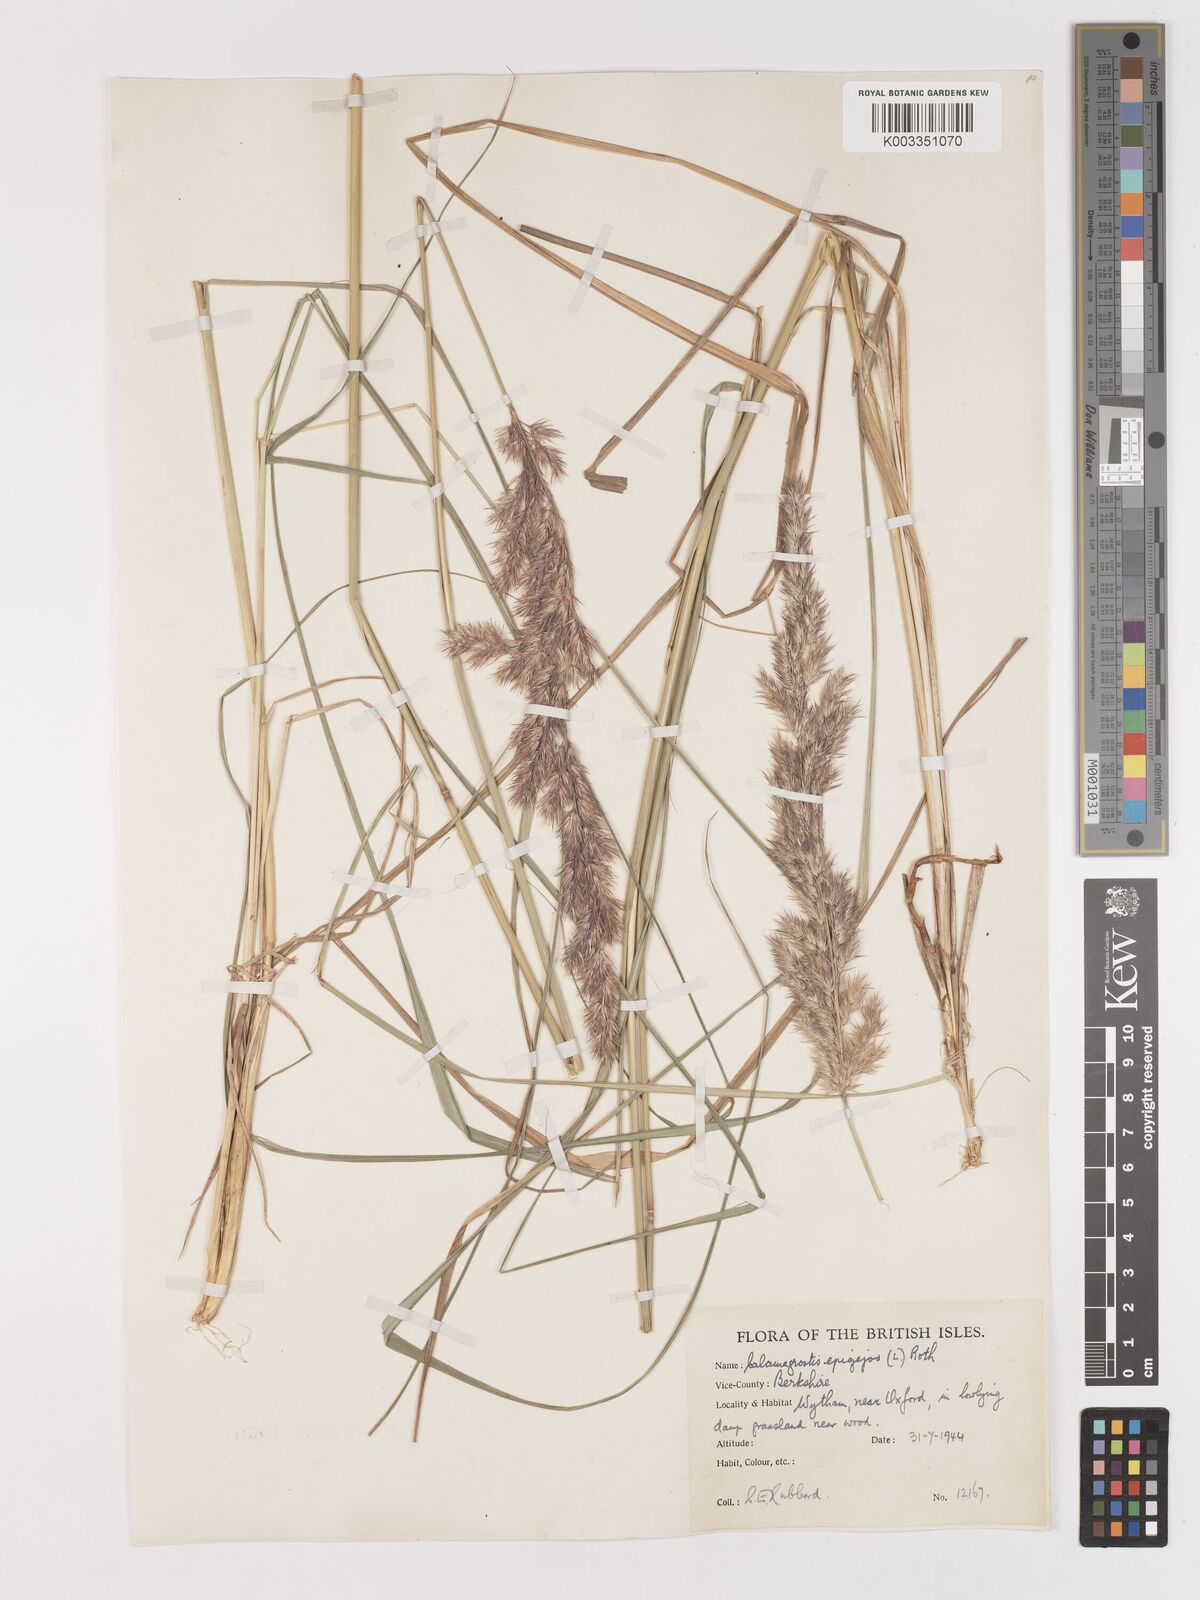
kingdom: Plantae
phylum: Tracheophyta
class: Liliopsida
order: Poales
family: Poaceae
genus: Calamagrostis
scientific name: Calamagrostis epigejos
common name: Wood small-reed
